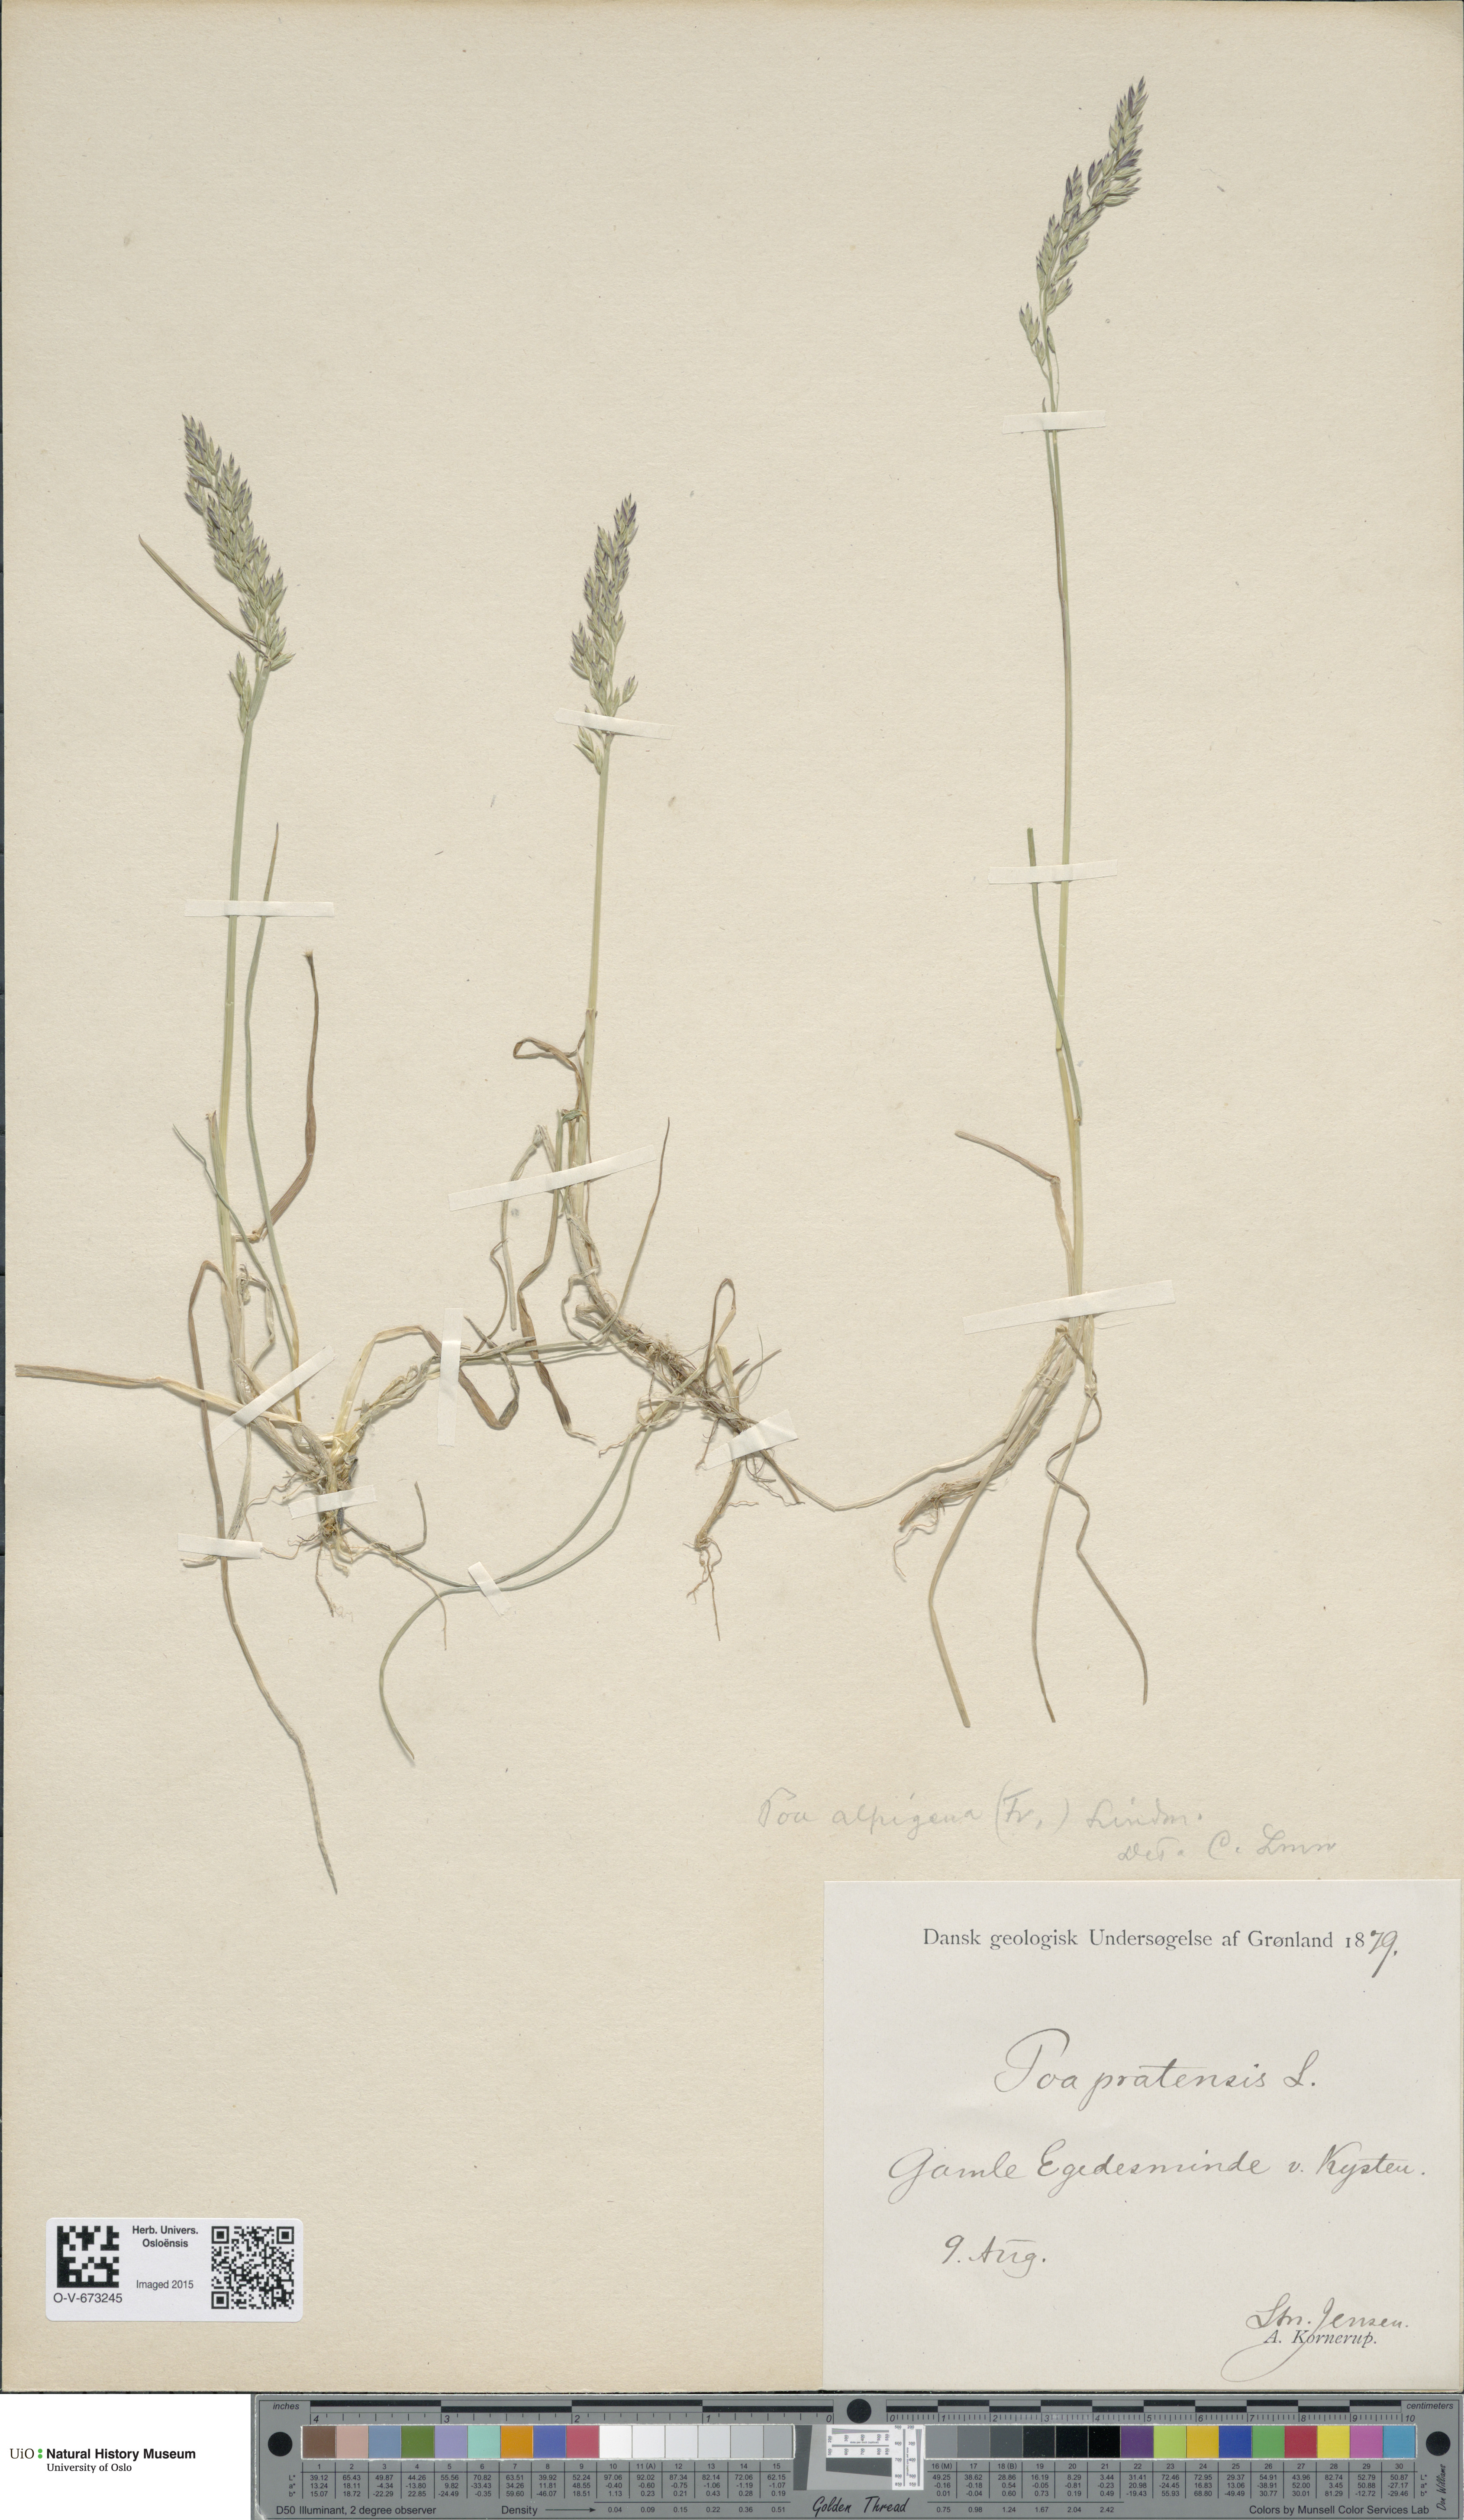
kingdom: Plantae
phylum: Tracheophyta
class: Liliopsida
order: Poales
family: Poaceae
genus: Poa
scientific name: Poa alpigena
